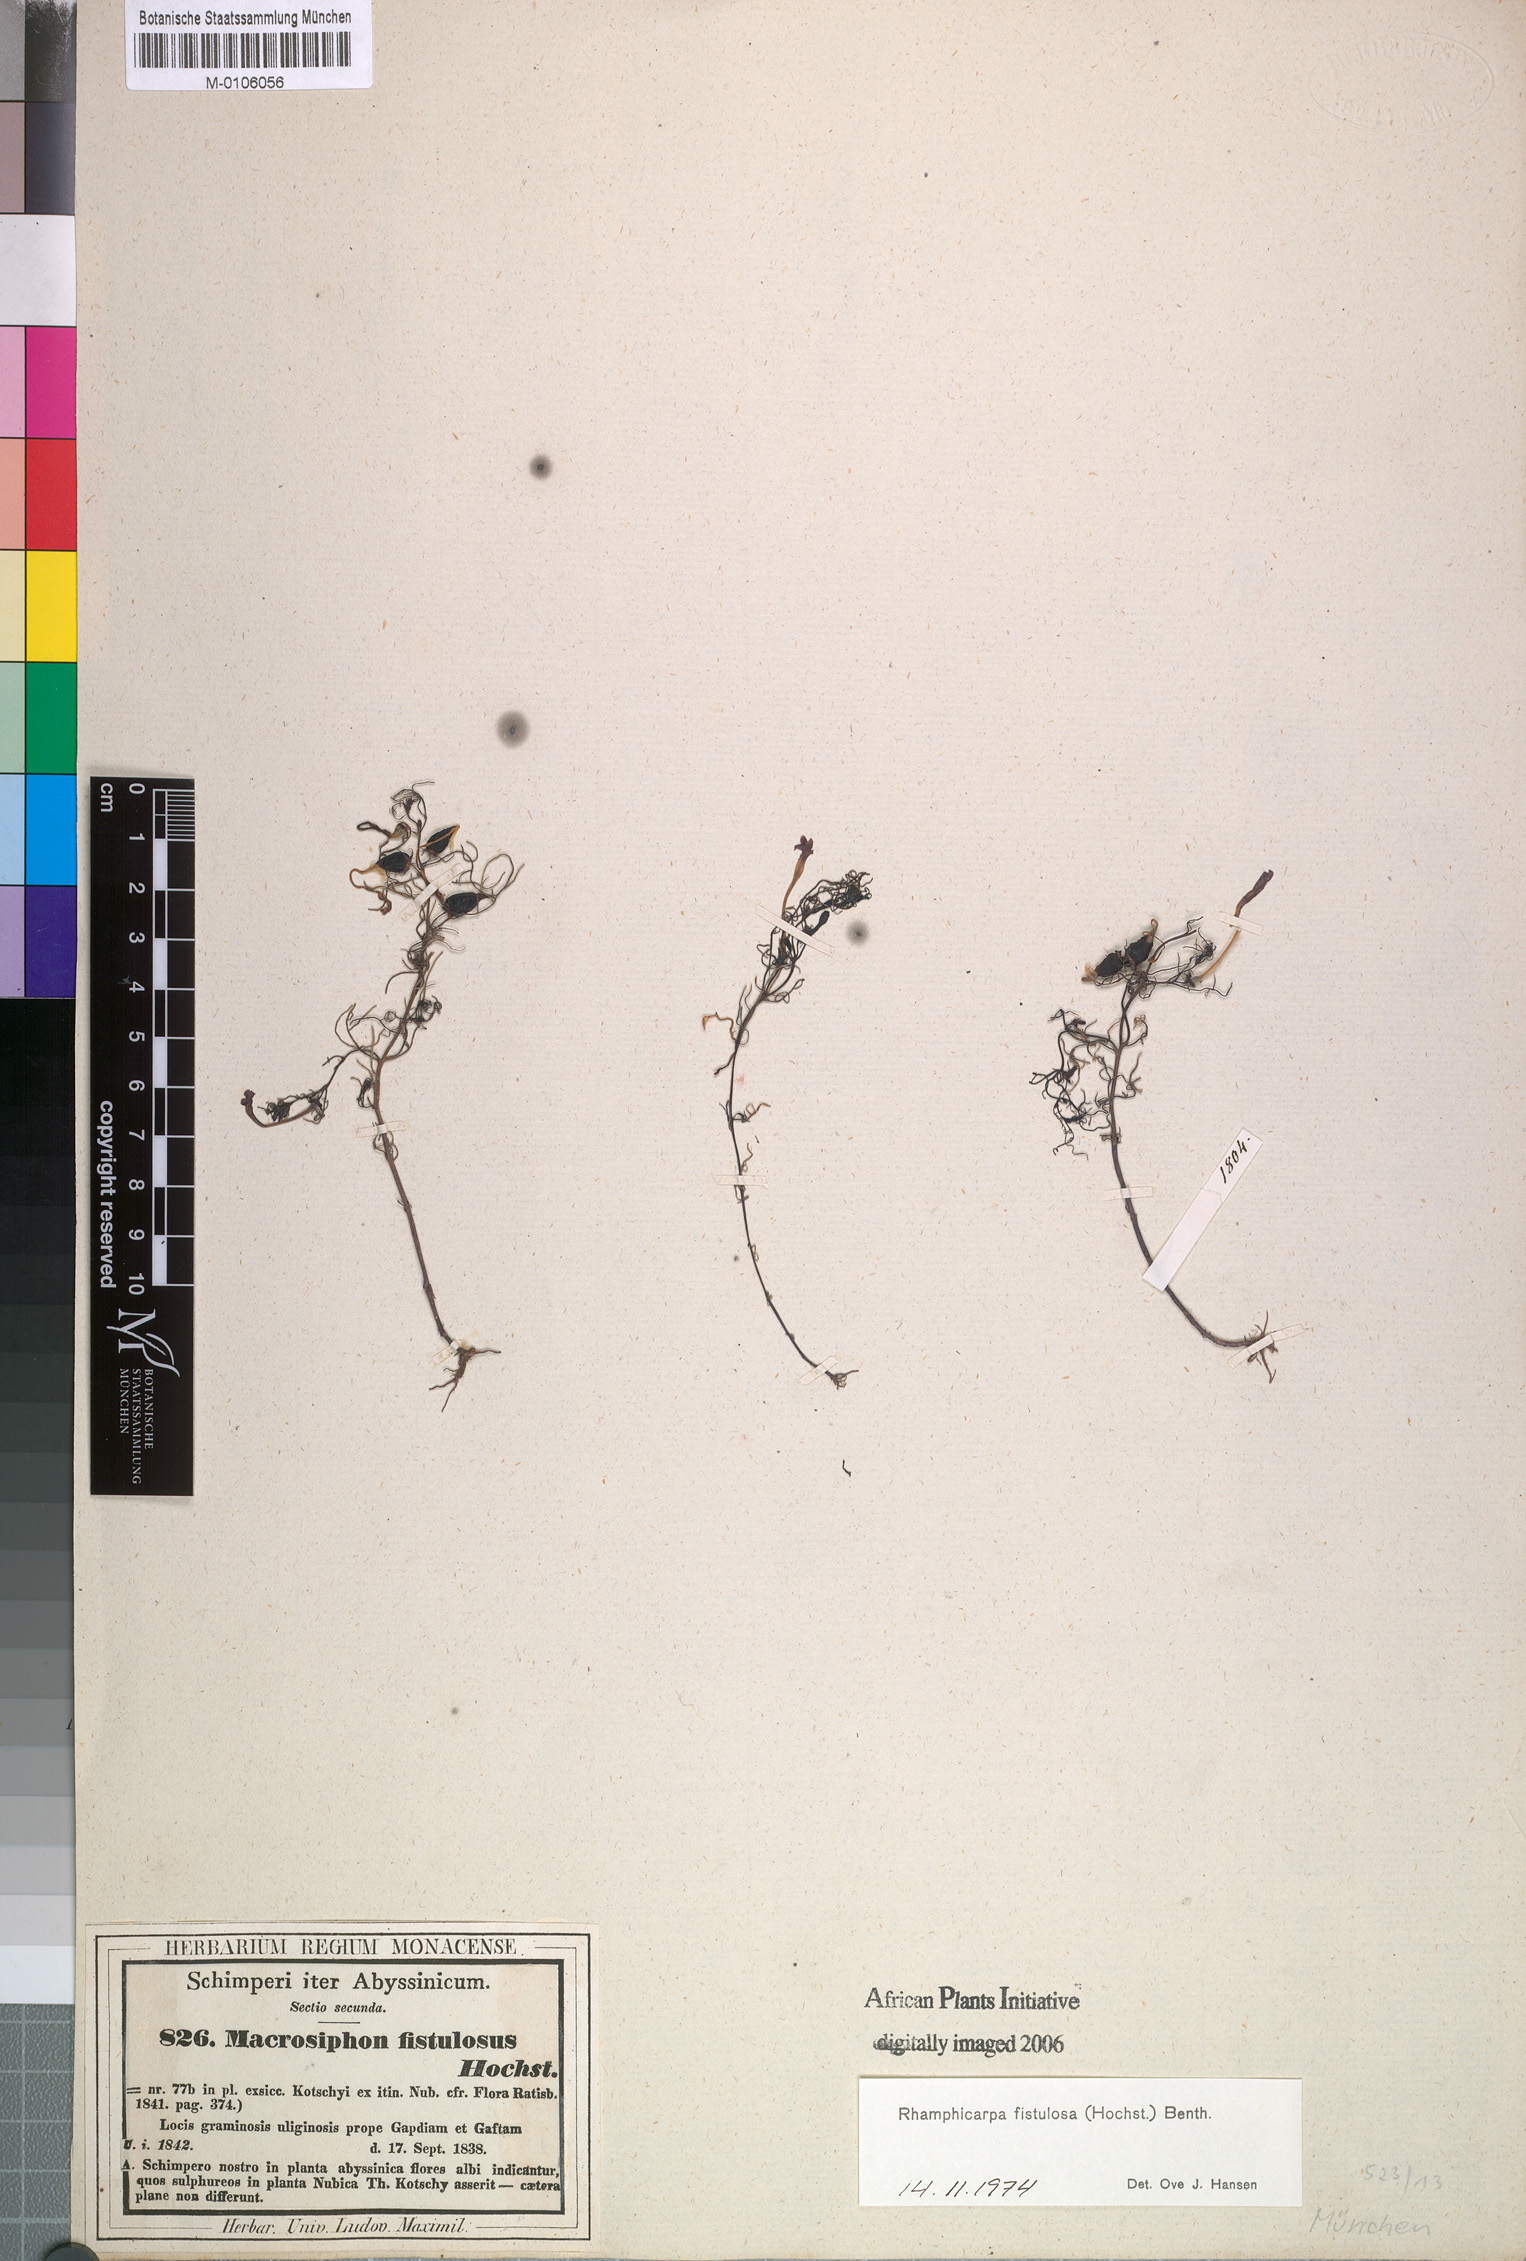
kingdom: Plantae
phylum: Tracheophyta
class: Magnoliopsida
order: Lamiales
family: Orobanchaceae
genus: Rhamphicarpa
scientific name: Rhamphicarpa fistulosa
